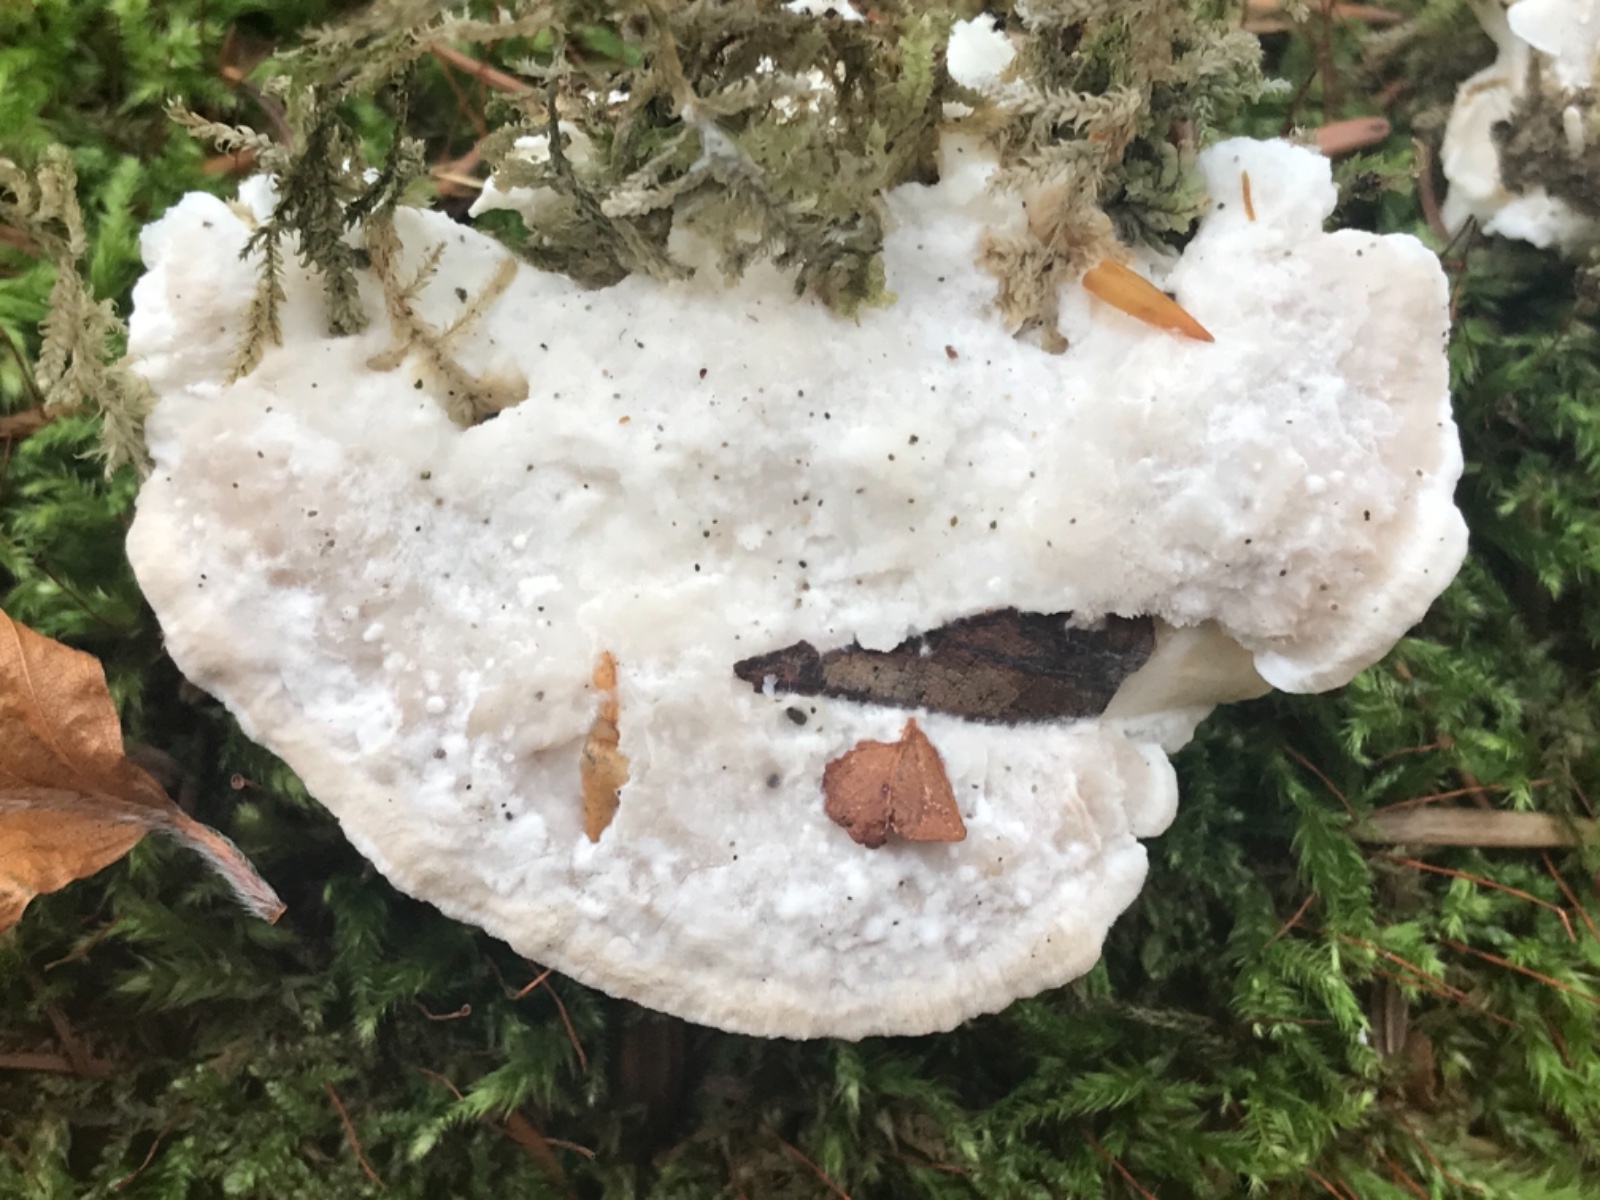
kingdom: Fungi
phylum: Basidiomycota
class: Agaricomycetes
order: Polyporales
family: Dacryobolaceae
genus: Postia
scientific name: Postia
